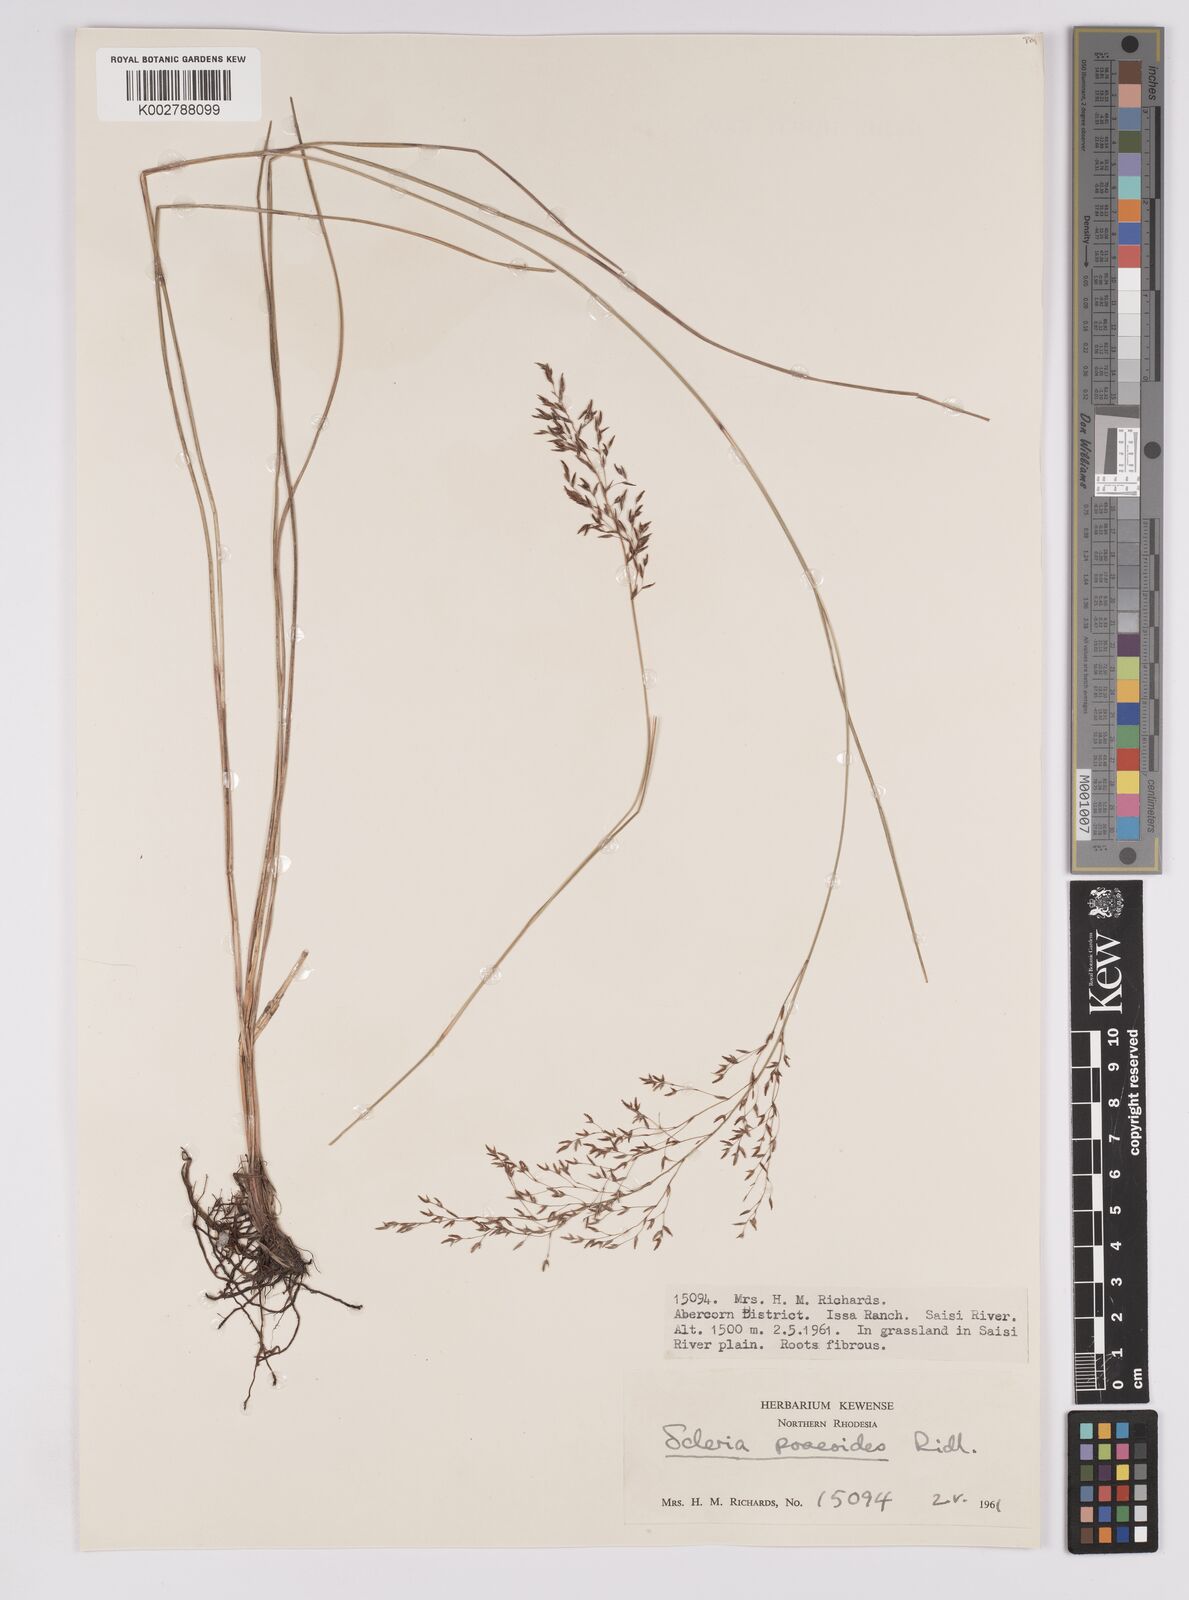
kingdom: Plantae
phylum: Tracheophyta
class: Liliopsida
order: Poales
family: Cyperaceae
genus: Scleria
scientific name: Scleria pooides
